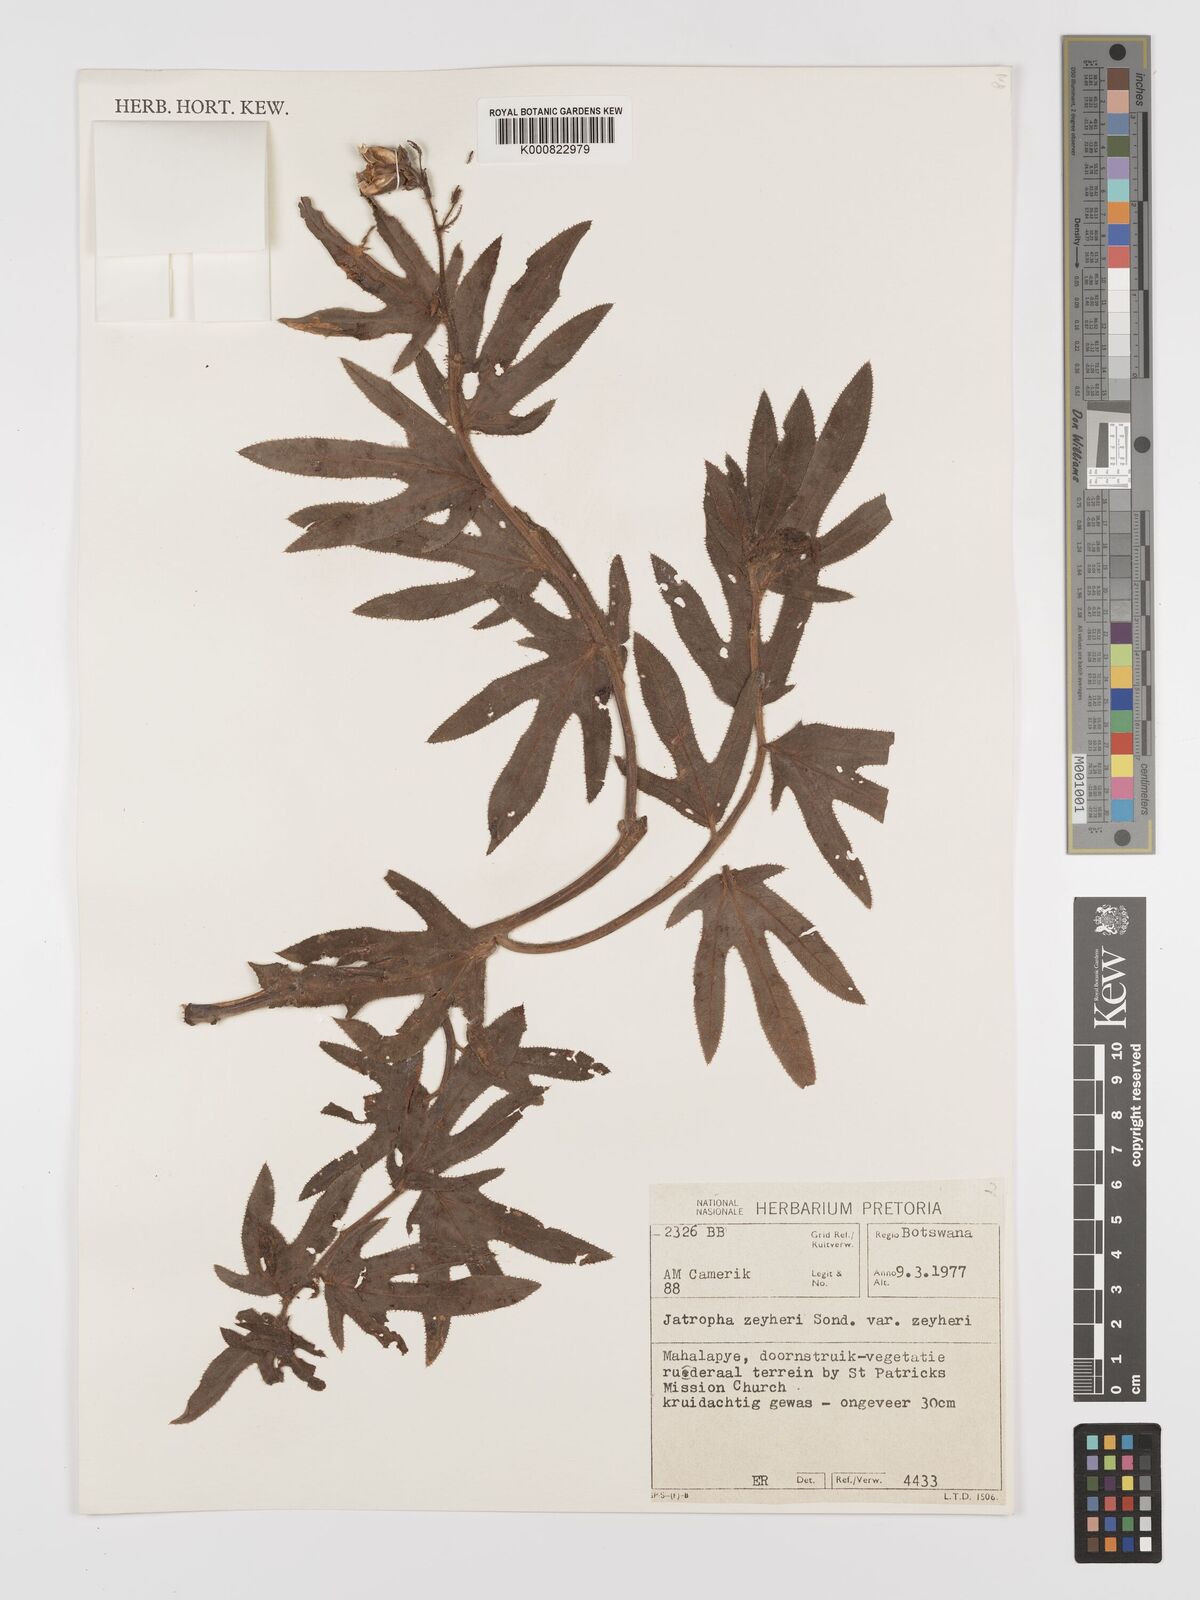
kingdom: Plantae
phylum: Tracheophyta
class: Magnoliopsida
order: Malpighiales
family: Euphorbiaceae
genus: Jatropha
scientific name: Jatropha zeyheri
